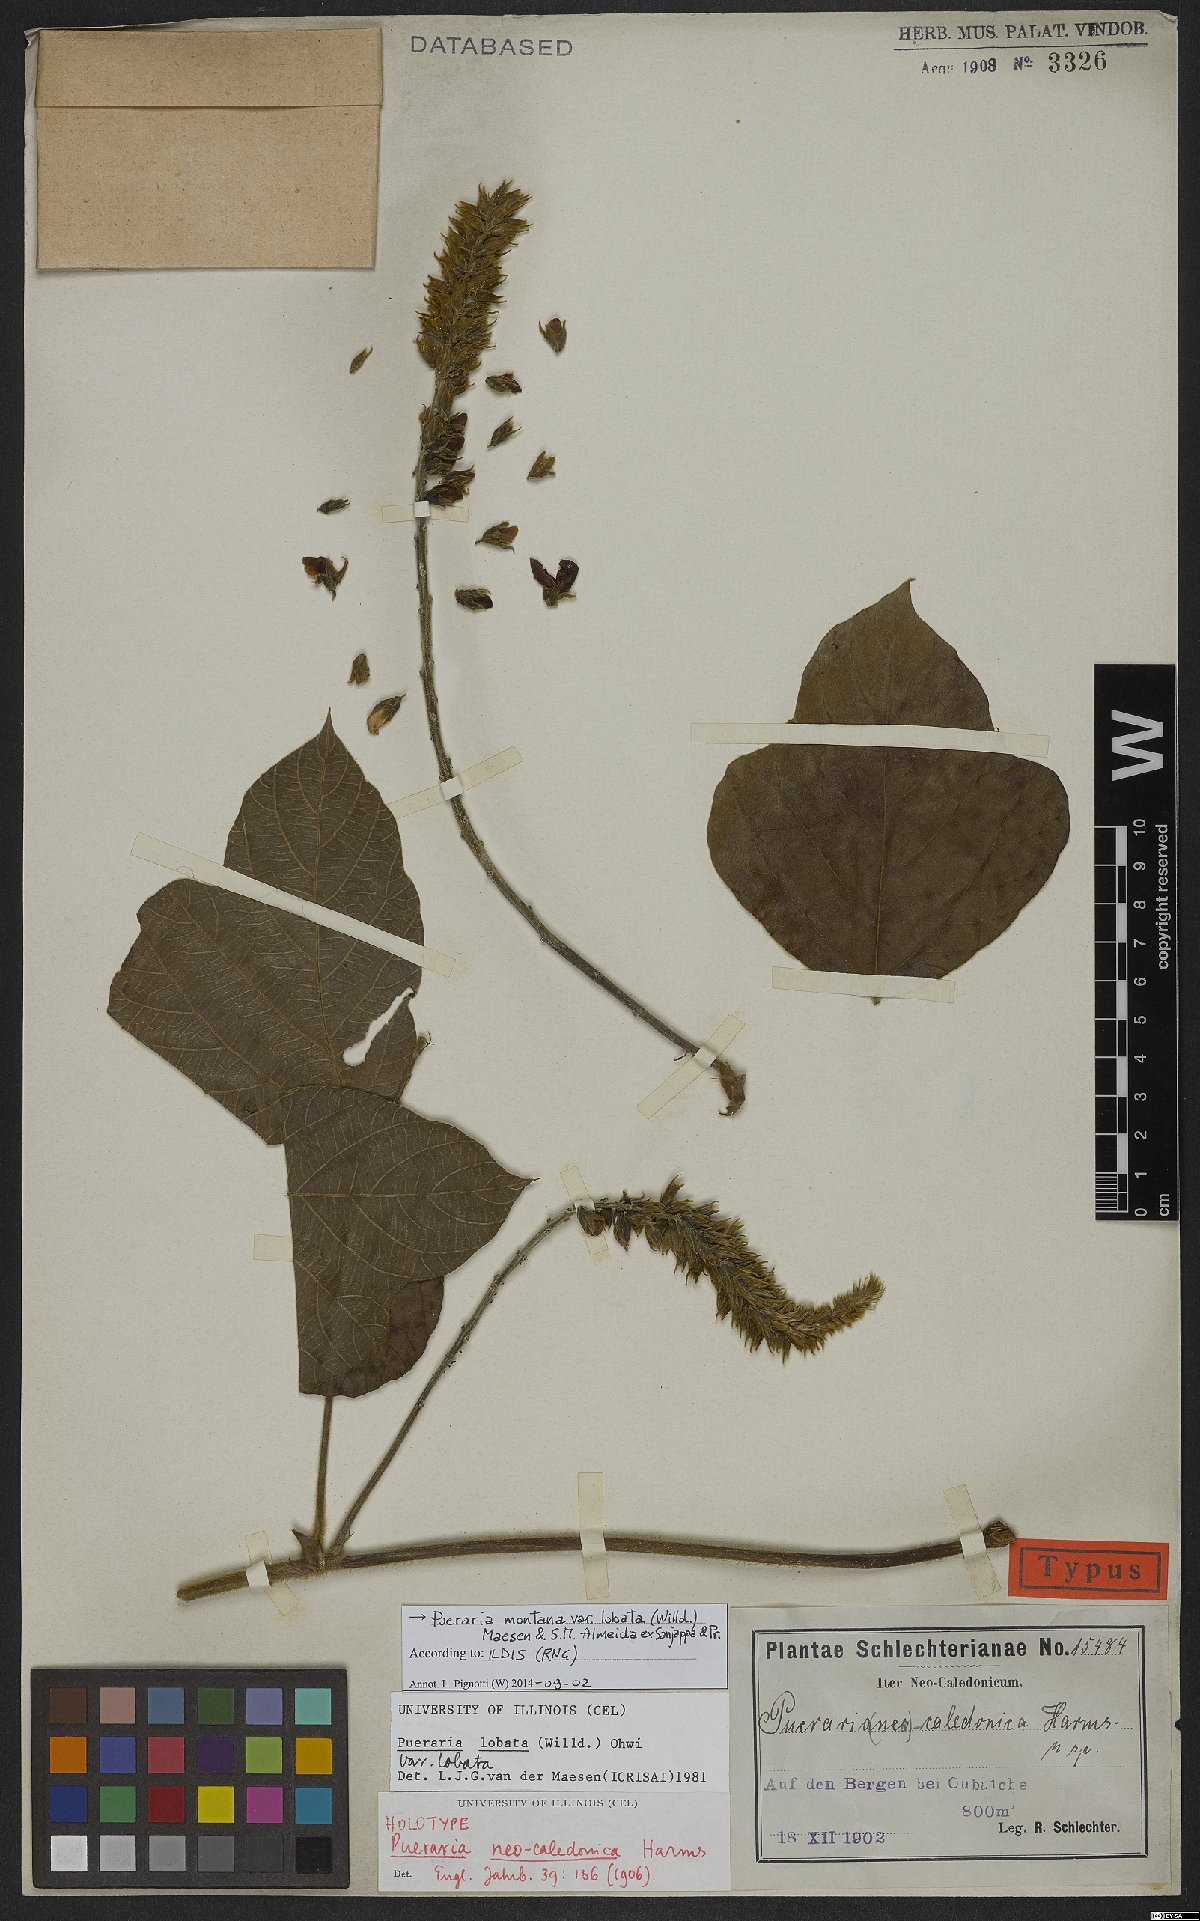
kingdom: Plantae
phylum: Tracheophyta
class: Magnoliopsida
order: Fabales
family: Fabaceae
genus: Pueraria
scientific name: Pueraria neocaledonica
